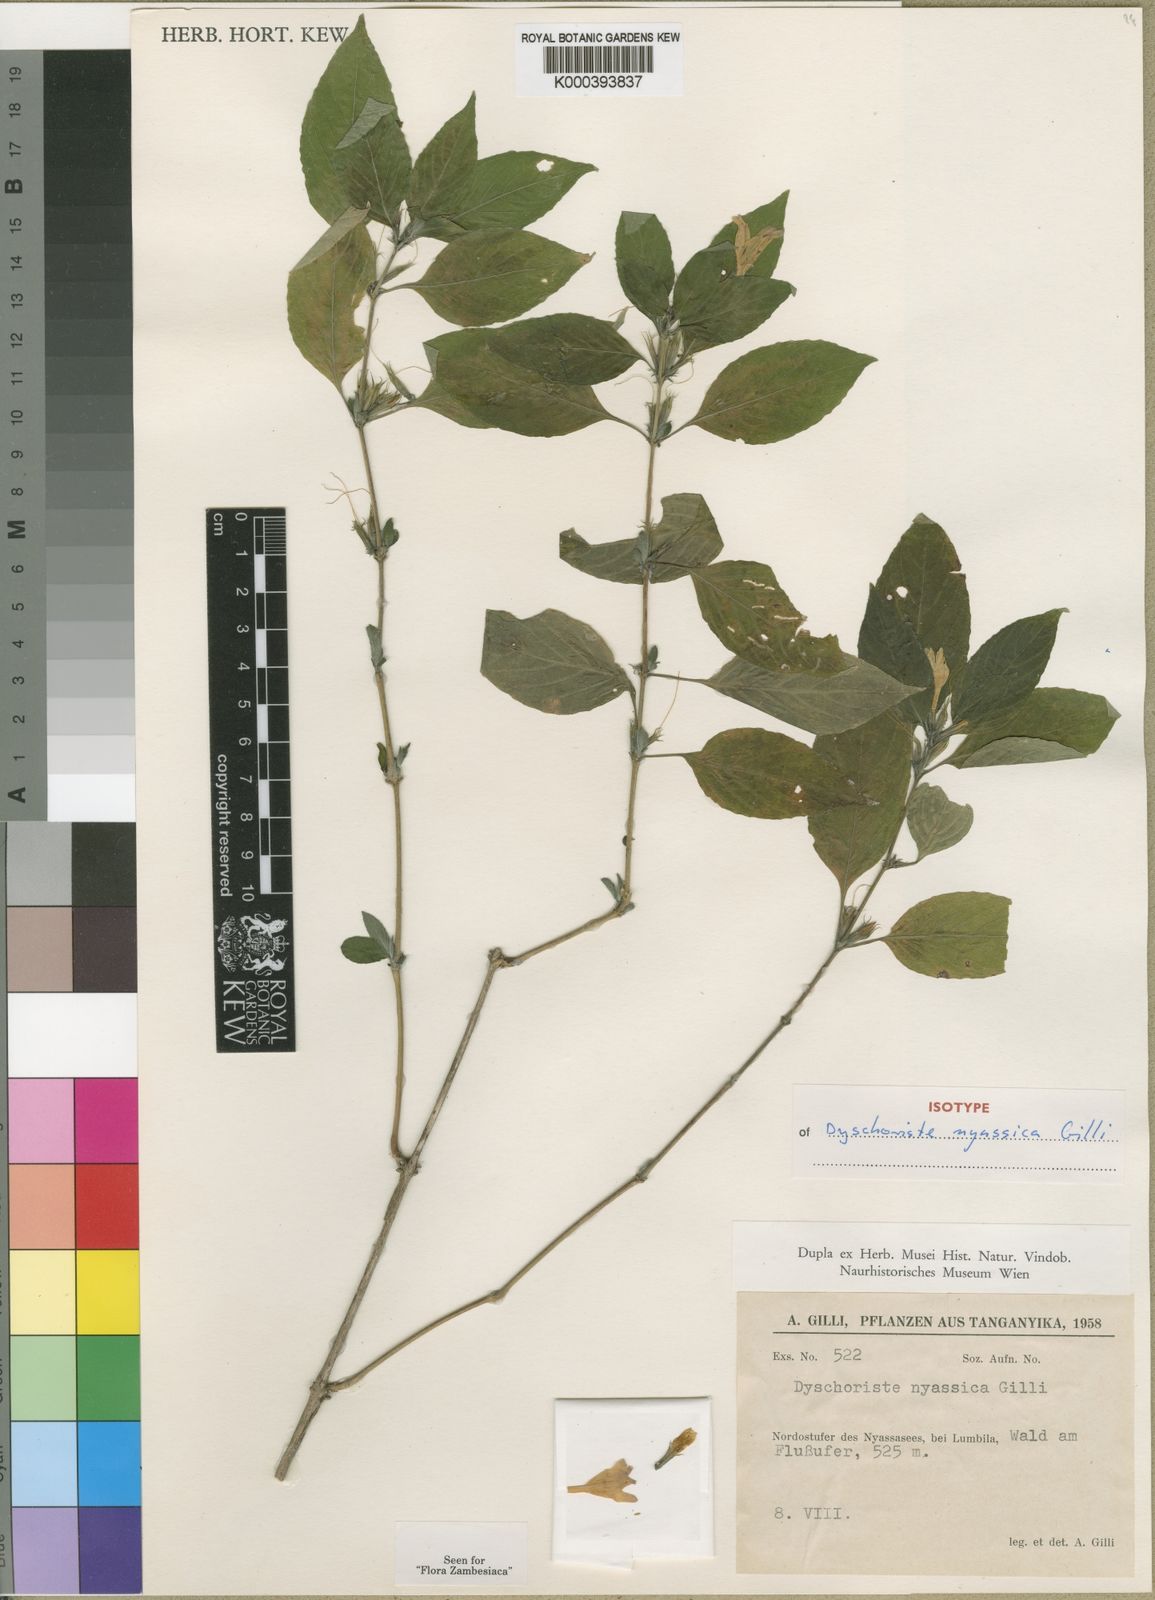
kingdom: Plantae
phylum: Tracheophyta
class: Magnoliopsida
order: Lamiales
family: Acanthaceae
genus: Dyschoriste
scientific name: Dyschoriste nyassica
